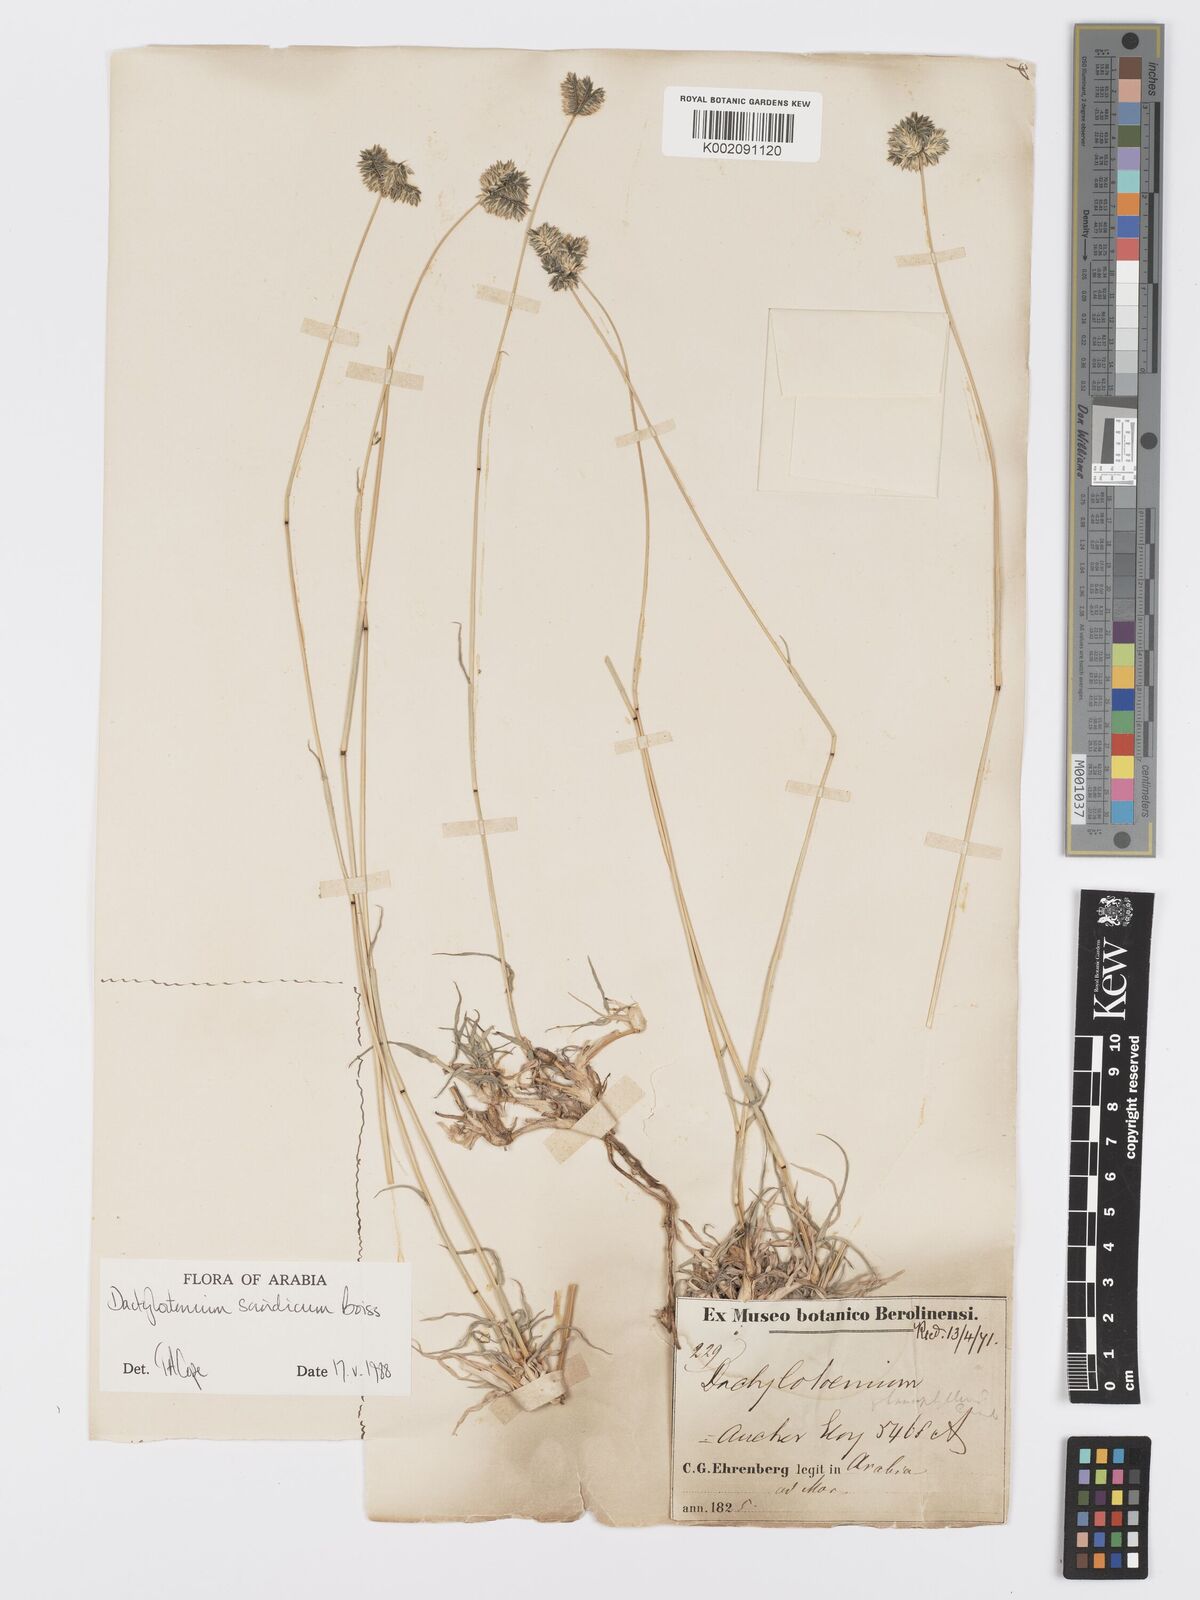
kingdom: Plantae
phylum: Tracheophyta
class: Liliopsida
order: Poales
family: Poaceae
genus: Dactyloctenium
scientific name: Dactyloctenium scindicum
